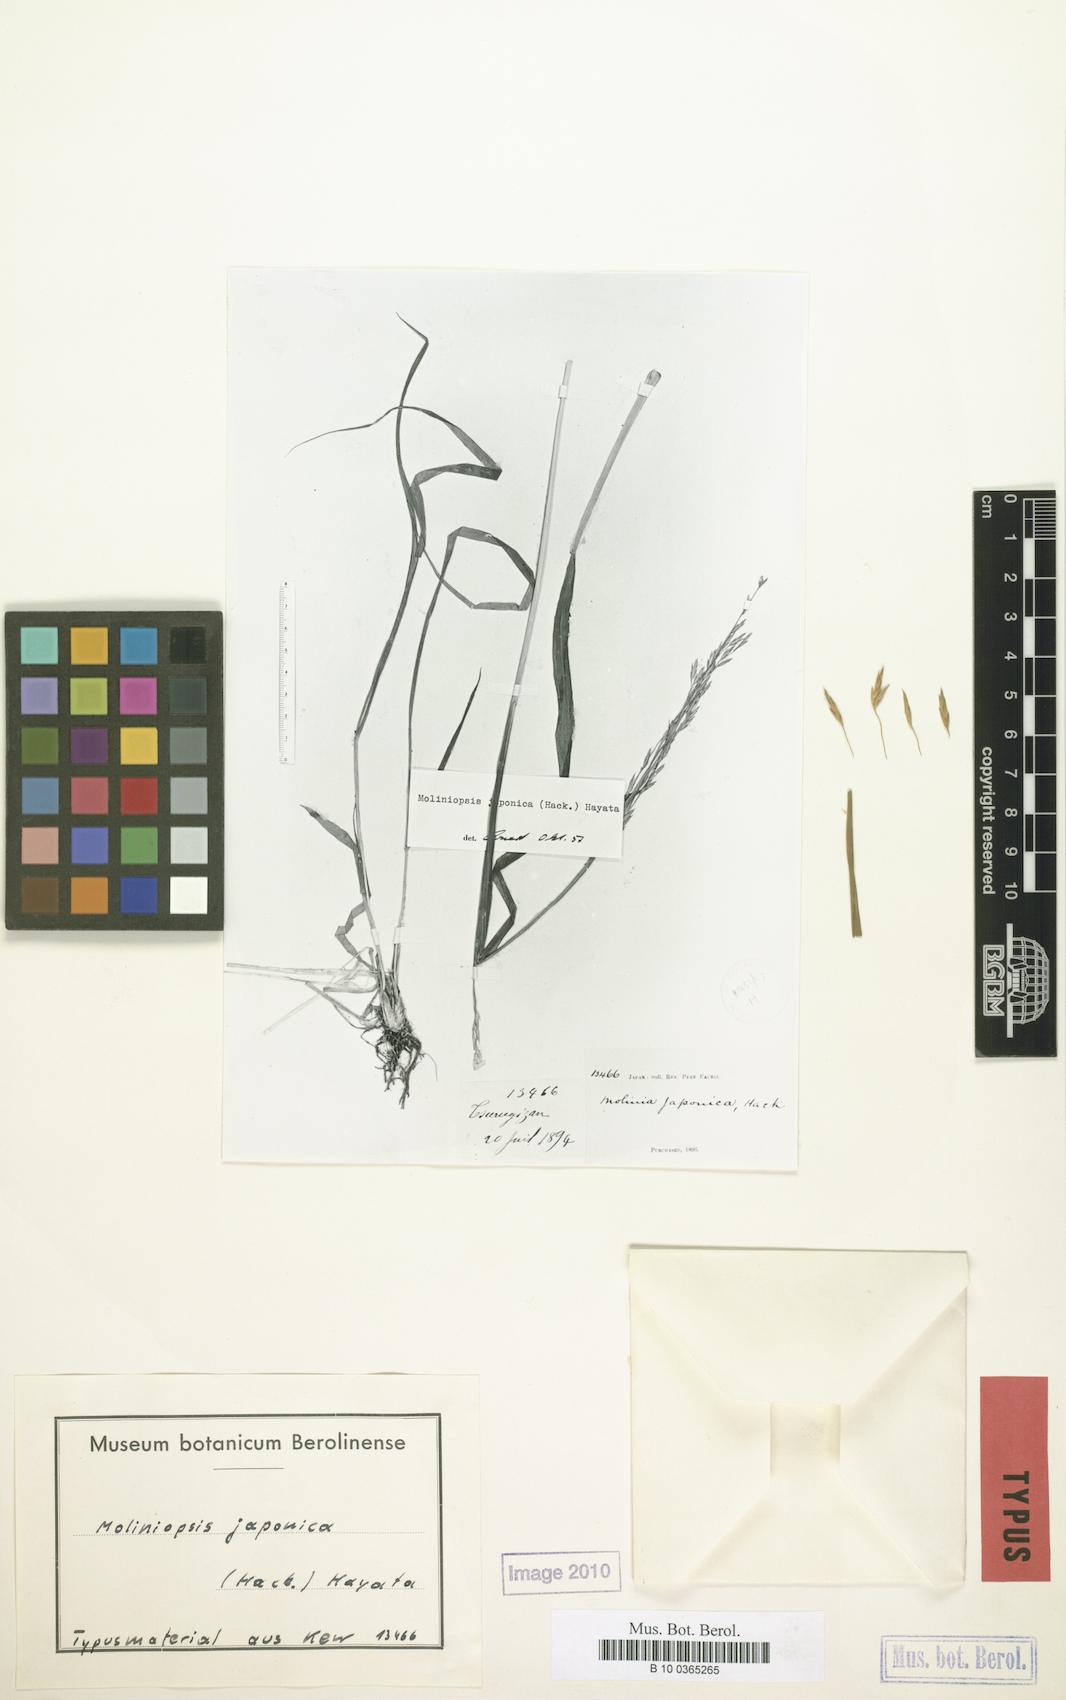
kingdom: Plantae
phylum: Tracheophyta
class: Liliopsida
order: Poales
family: Poaceae
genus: Moliniopsis
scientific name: Moliniopsis japonica
